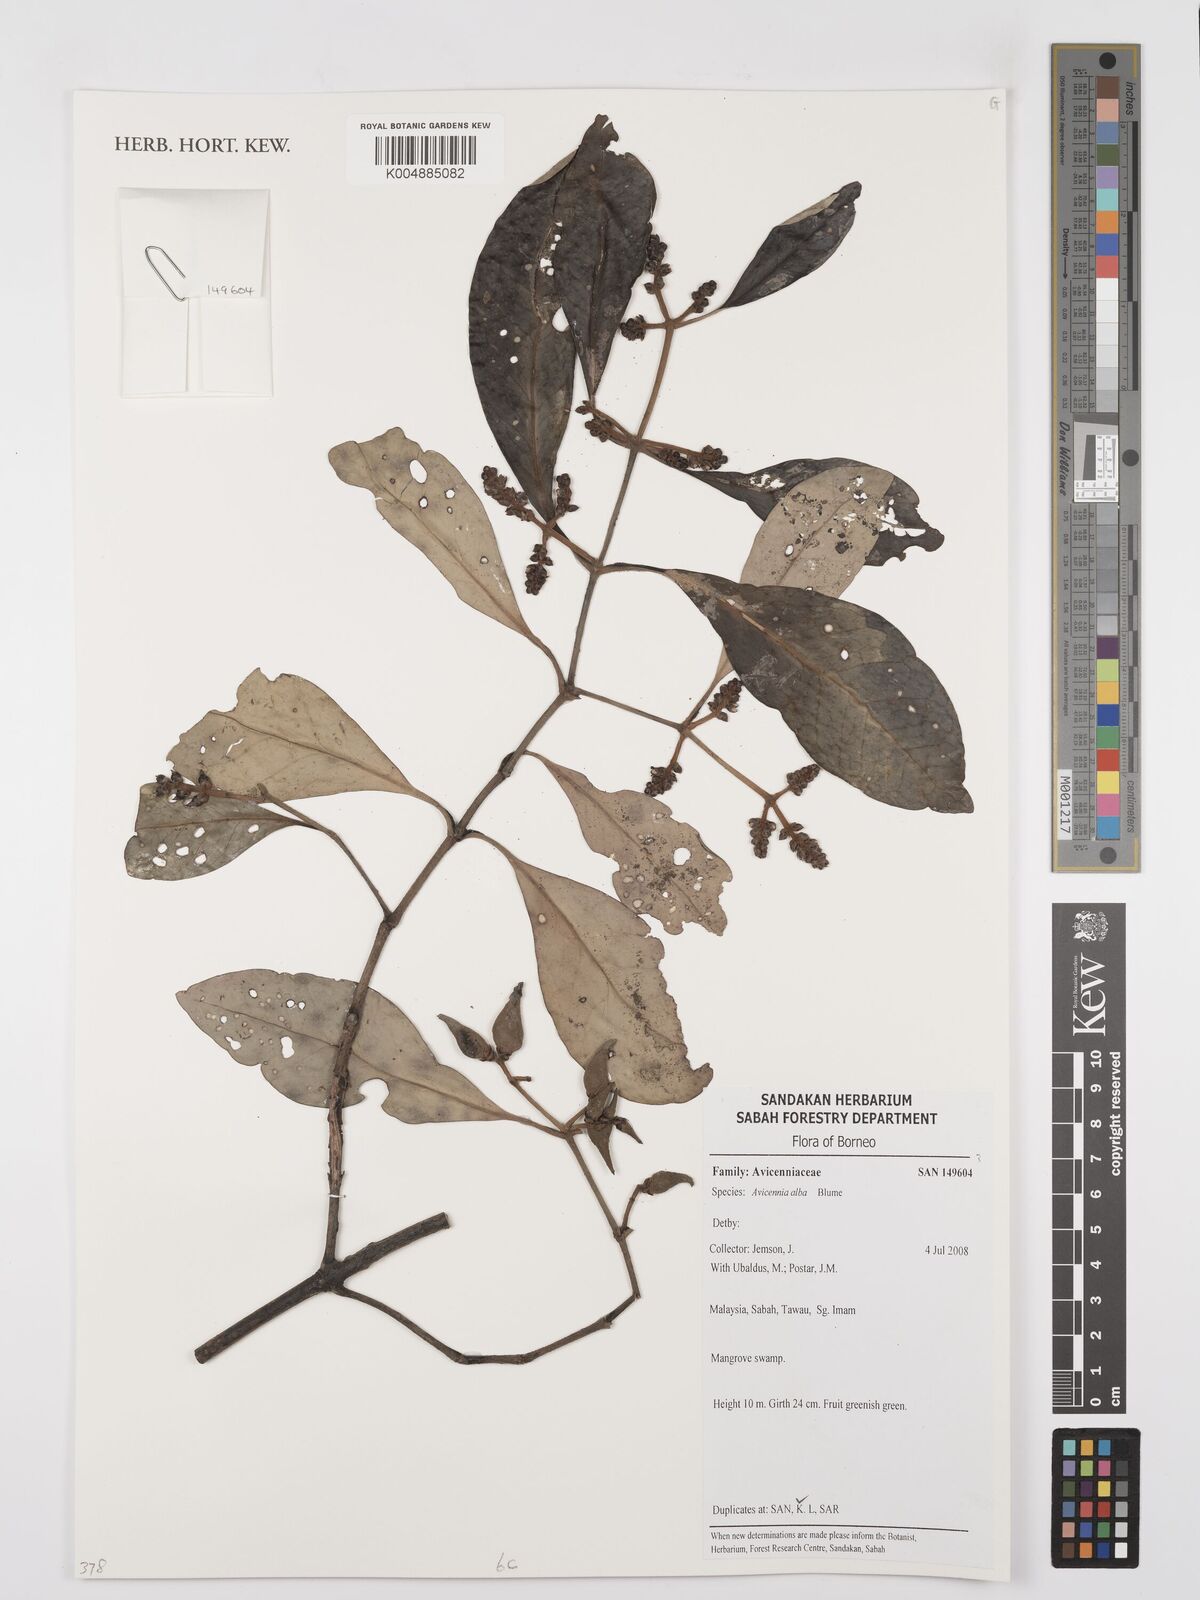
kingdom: Plantae
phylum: Tracheophyta
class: Magnoliopsida
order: Lamiales
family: Acanthaceae
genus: Avicennia
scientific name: Avicennia alba
